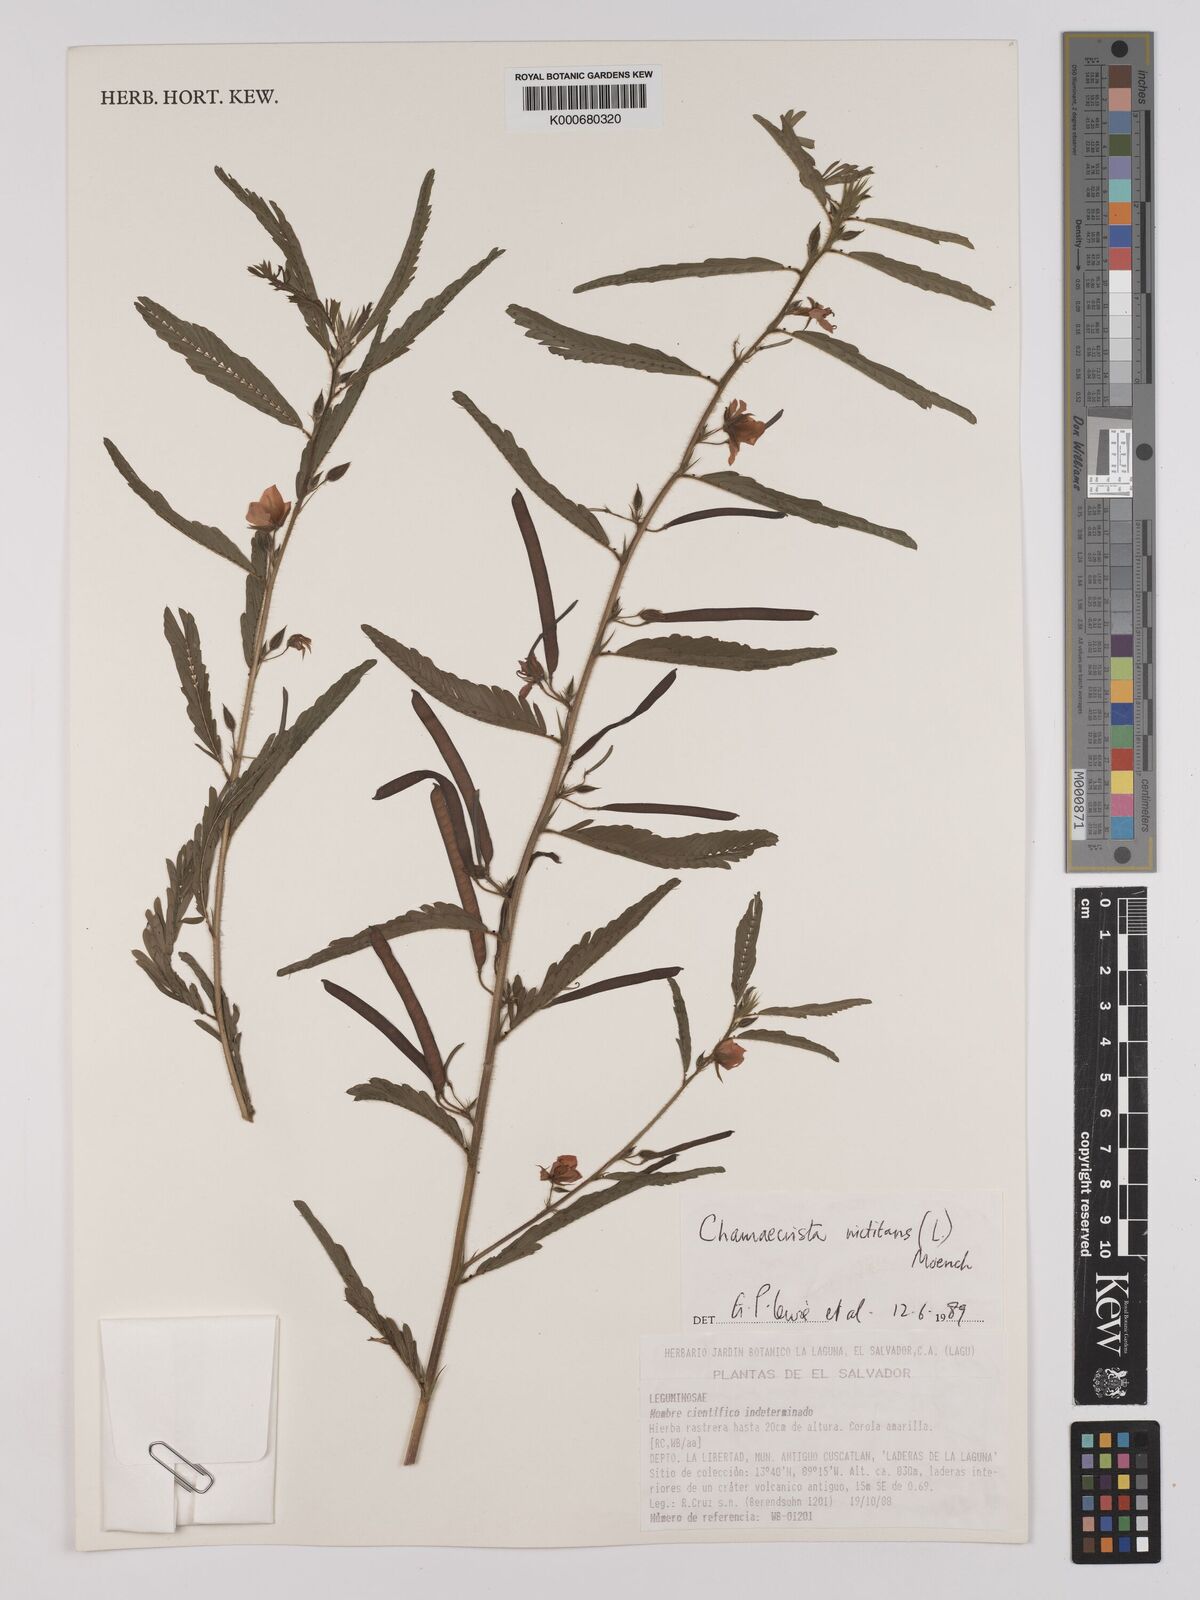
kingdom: Plantae
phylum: Tracheophyta
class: Magnoliopsida
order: Fabales
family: Fabaceae
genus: Chamaecrista
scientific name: Chamaecrista nictitans
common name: Sensitive cassia
